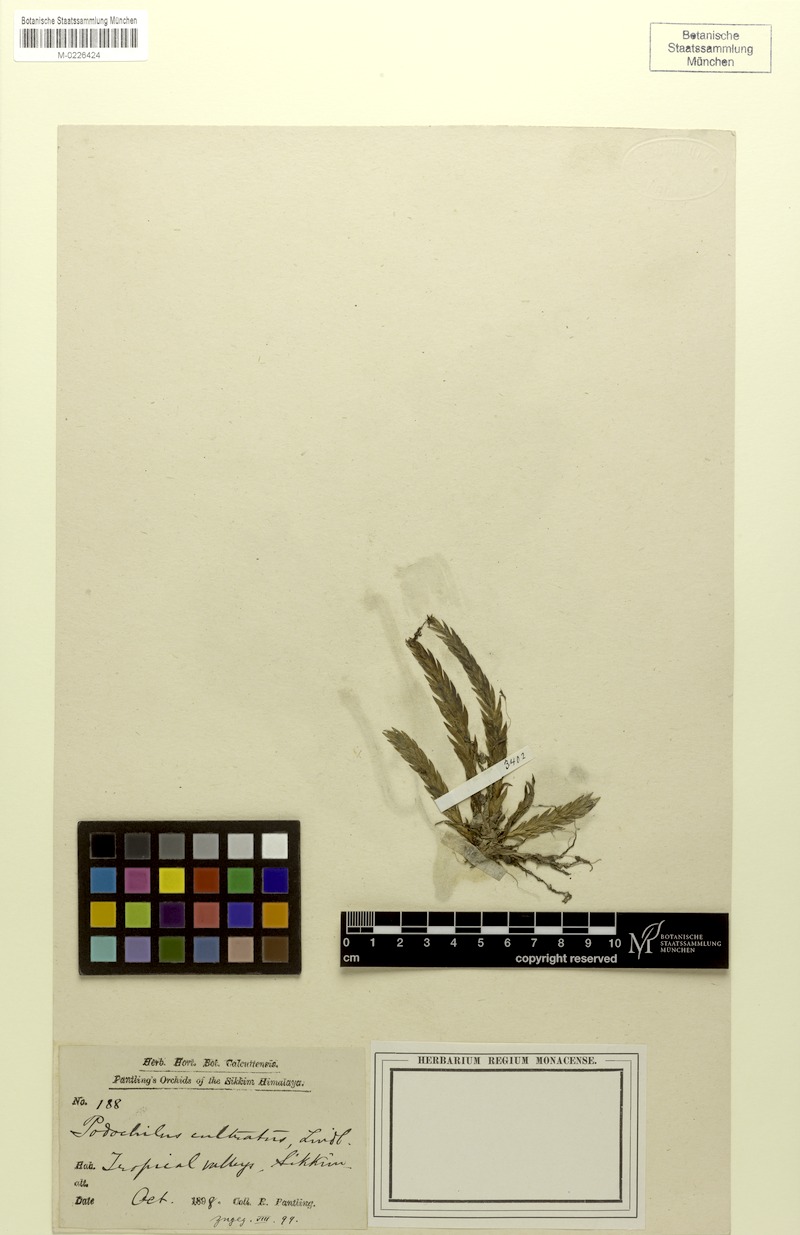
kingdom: Plantae
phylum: Tracheophyta
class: Liliopsida
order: Asparagales
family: Orchidaceae
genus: Podochilus
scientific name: Podochilus cultratus
